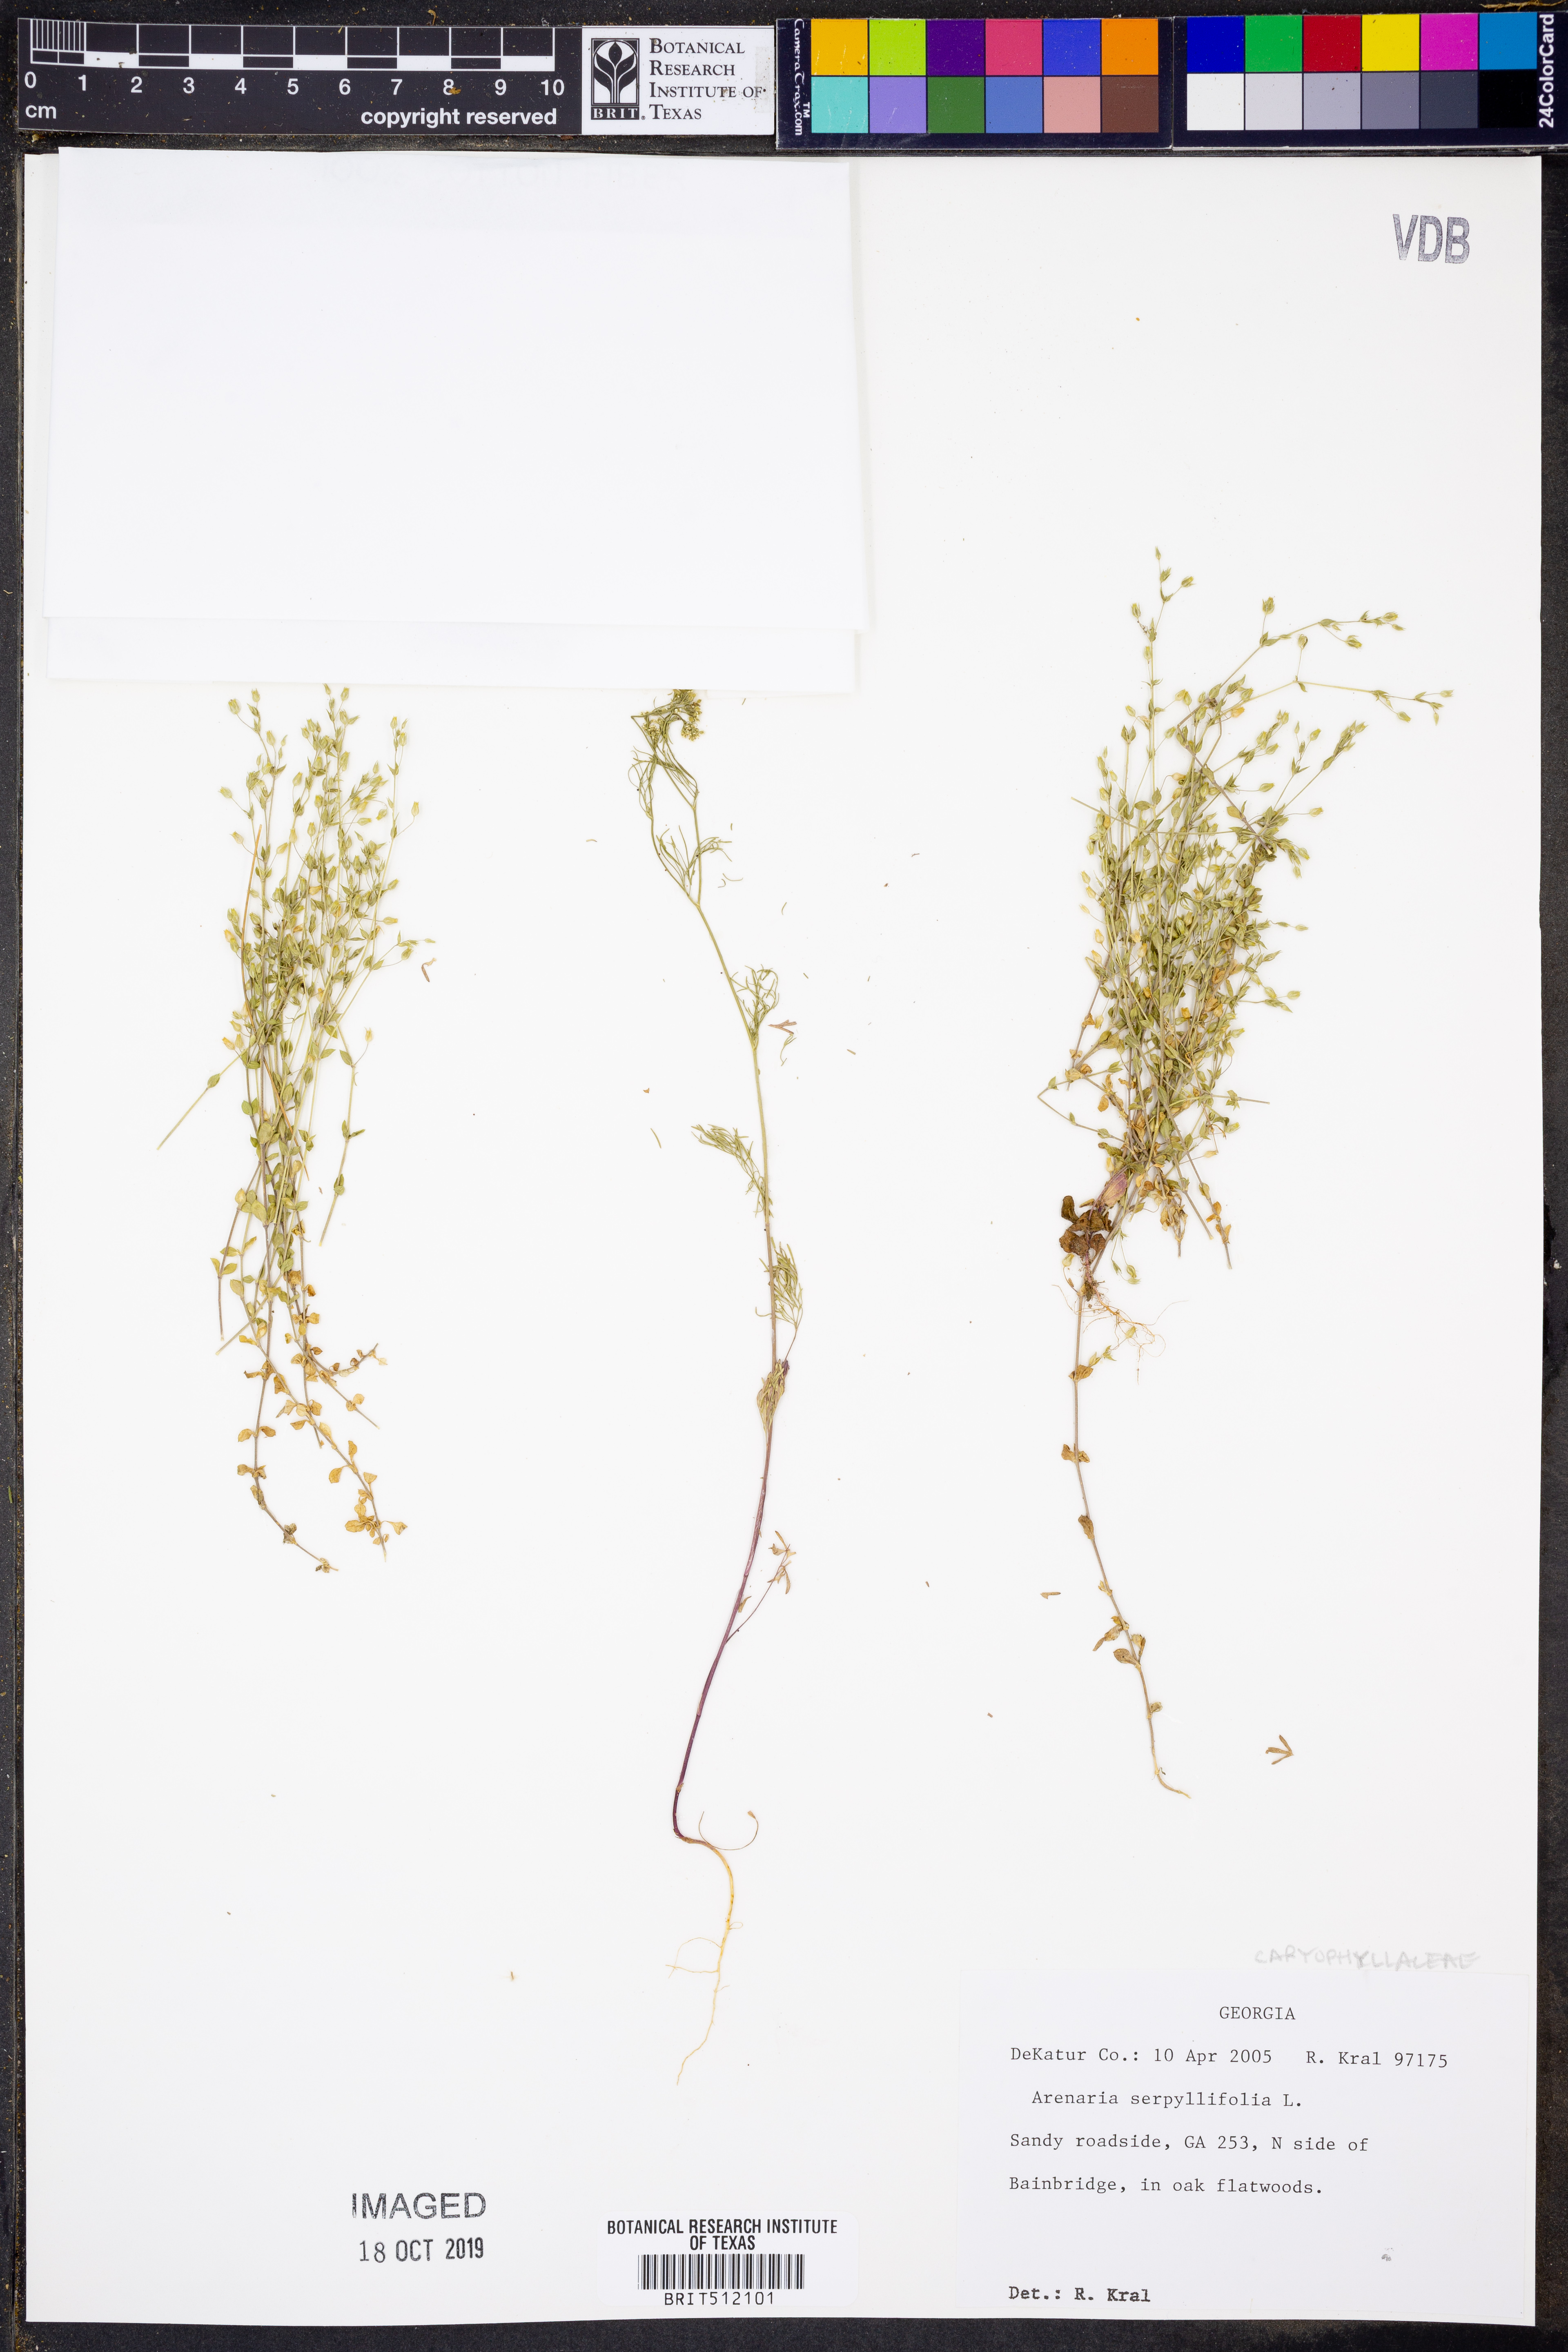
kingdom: Plantae
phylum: Tracheophyta
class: Magnoliopsida
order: Caryophyllales
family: Caryophyllaceae
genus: Arenaria
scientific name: Arenaria serpyllifolia
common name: Thyme-leaved sandwort
